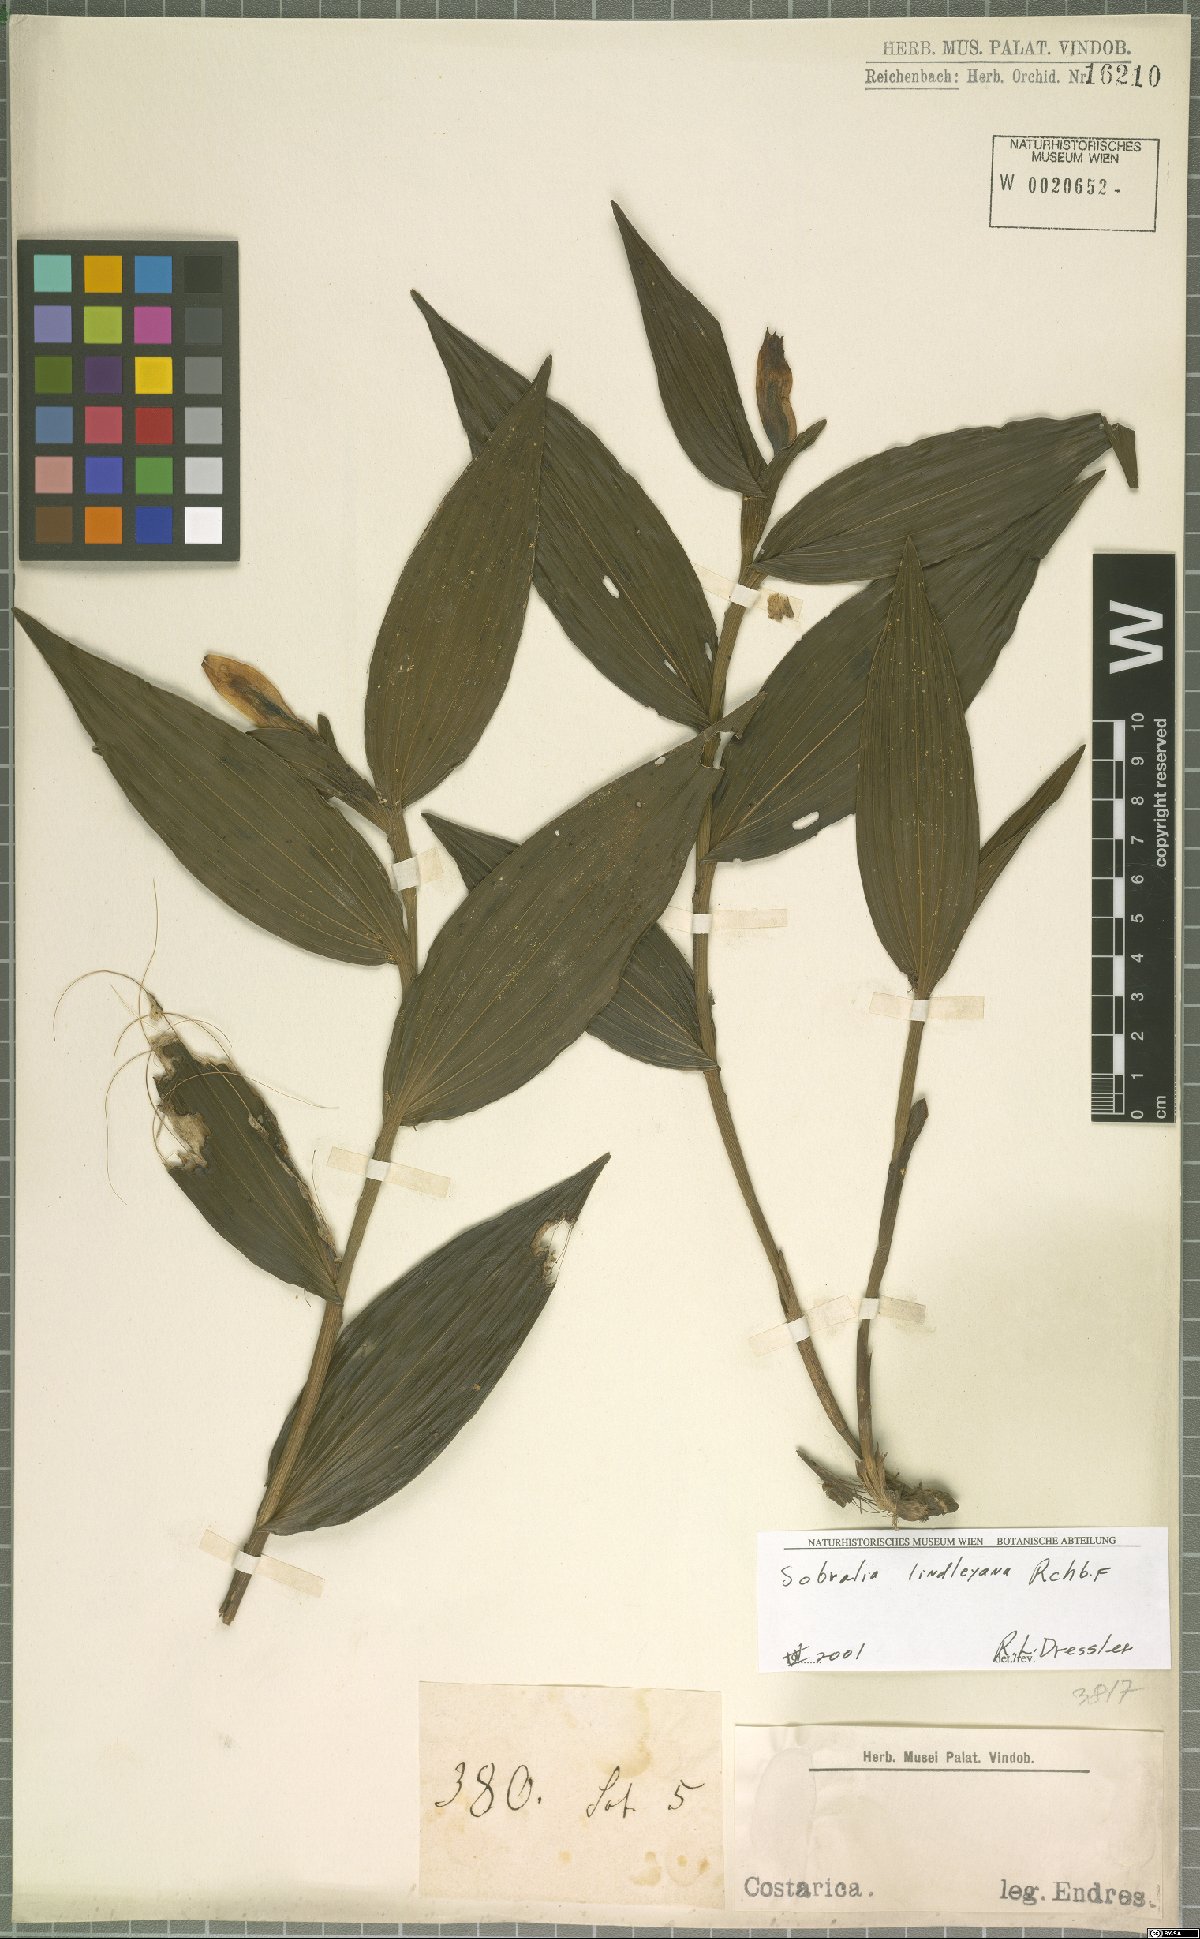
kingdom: Plantae
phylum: Tracheophyta
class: Liliopsida
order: Asparagales
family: Orchidaceae
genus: Sobralia
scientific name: Sobralia lindleyana
